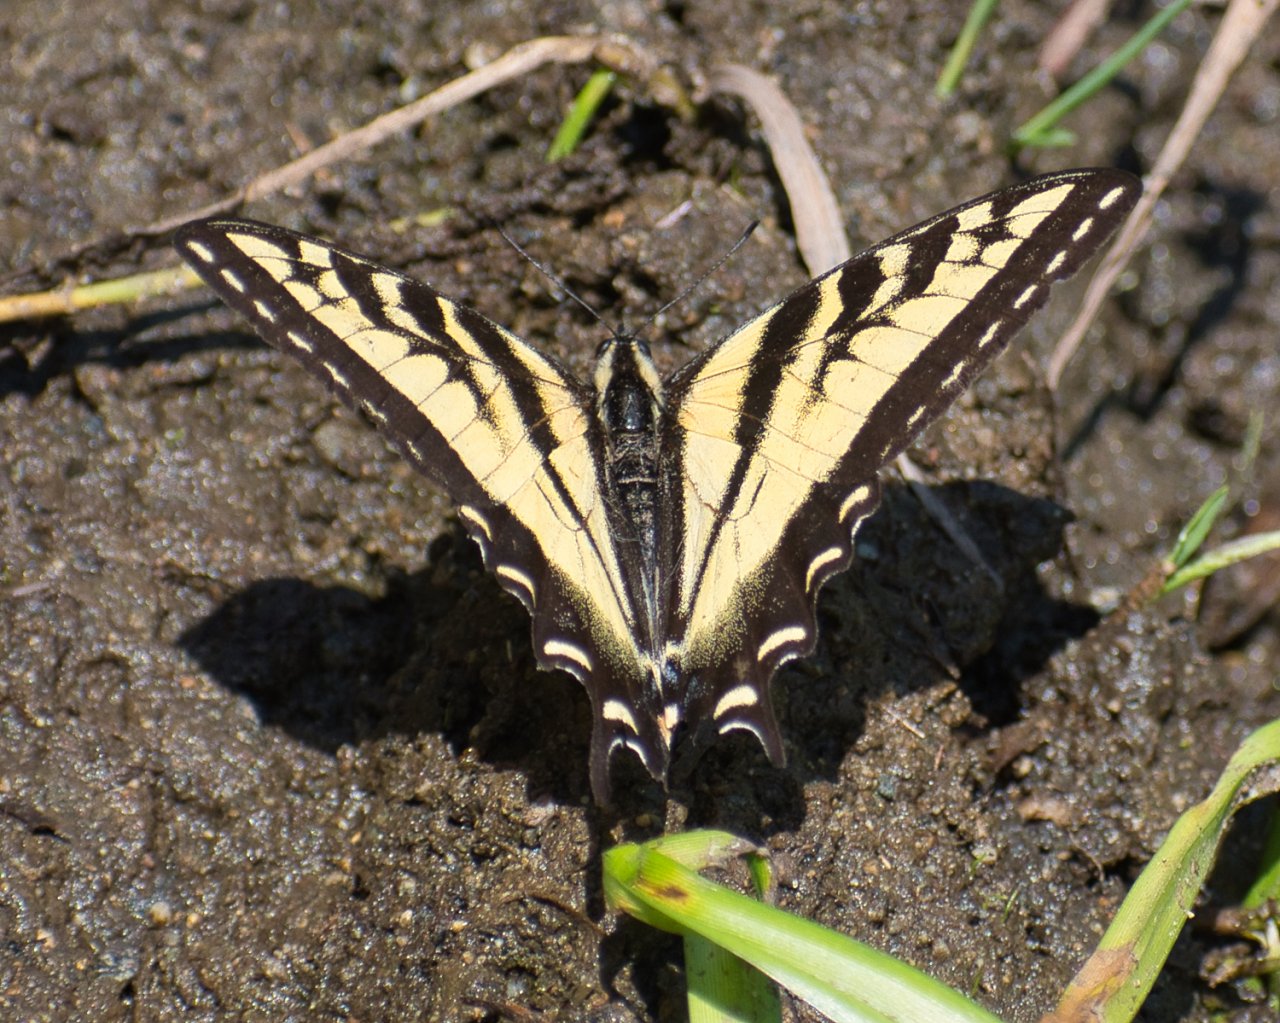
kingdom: Animalia
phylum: Arthropoda
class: Insecta
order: Lepidoptera
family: Papilionidae
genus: Pterourus
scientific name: Pterourus rutulus
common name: Western Tiger Swallowtail
